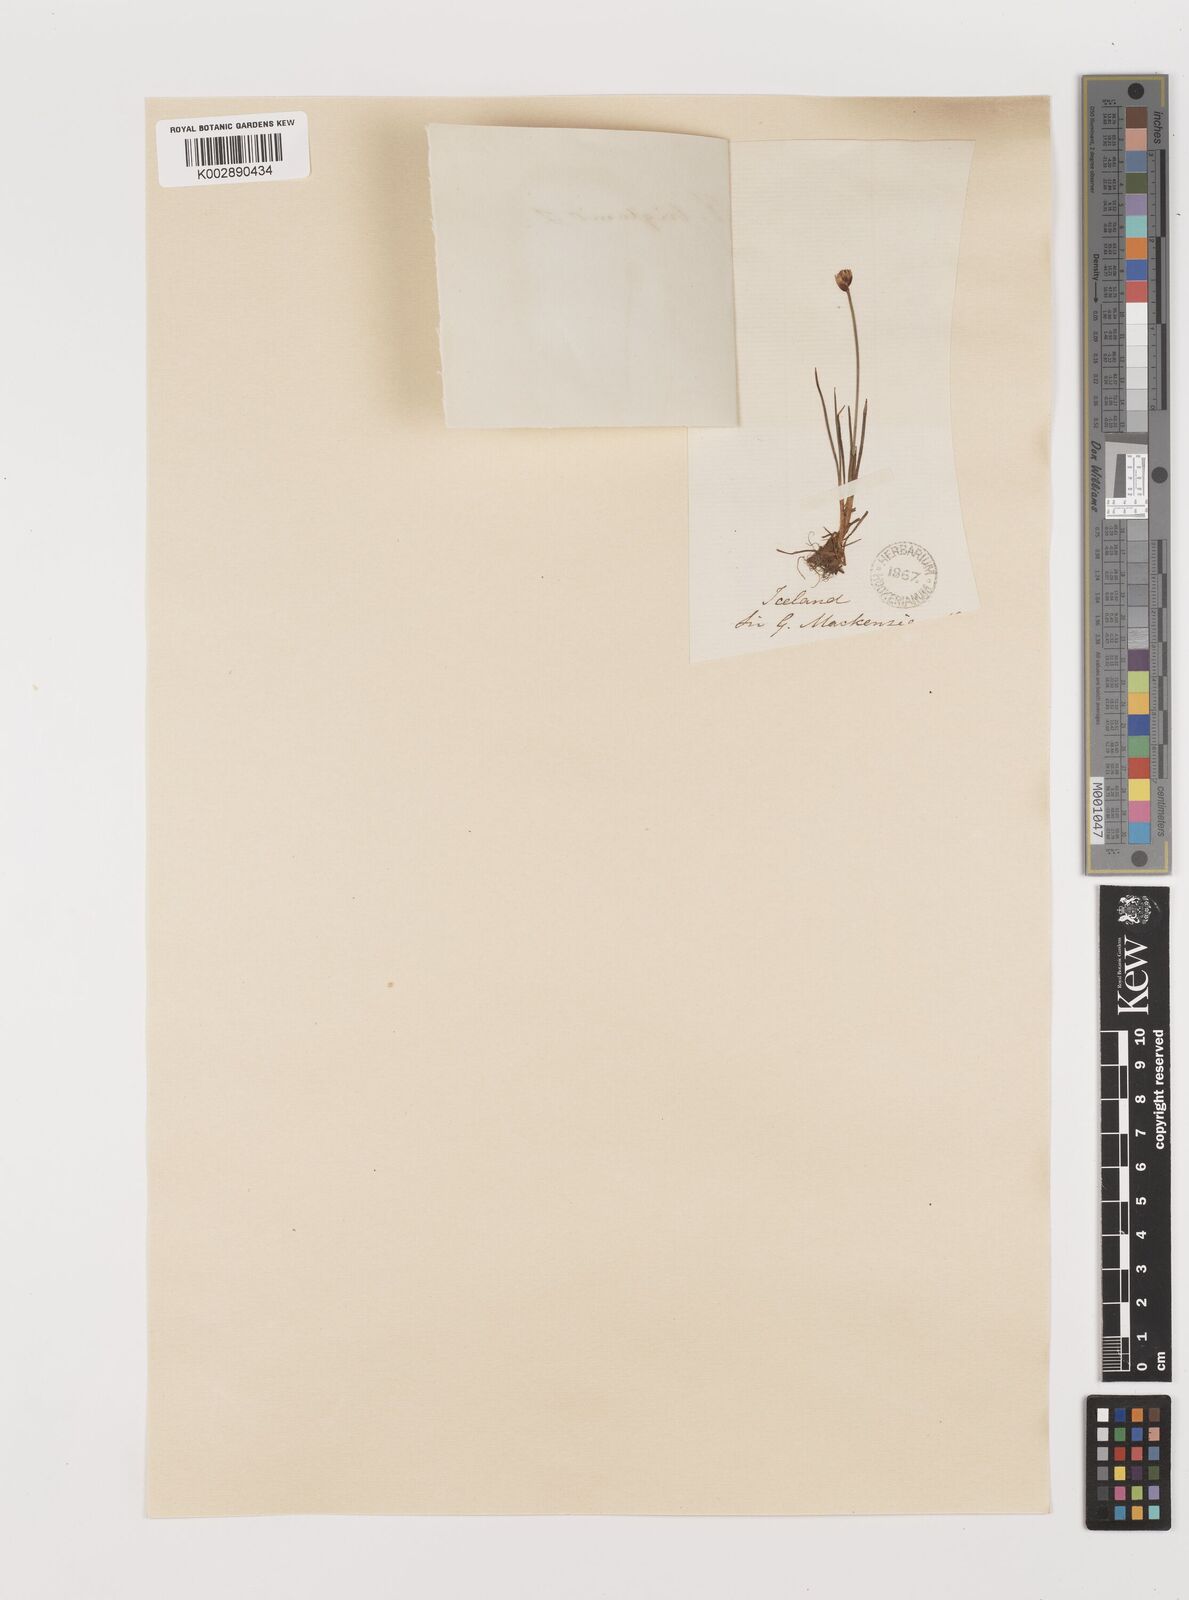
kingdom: Plantae
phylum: Tracheophyta
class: Liliopsida
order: Poales
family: Juncaceae
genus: Juncus
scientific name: Juncus triglumis
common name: Three-flowered rush
